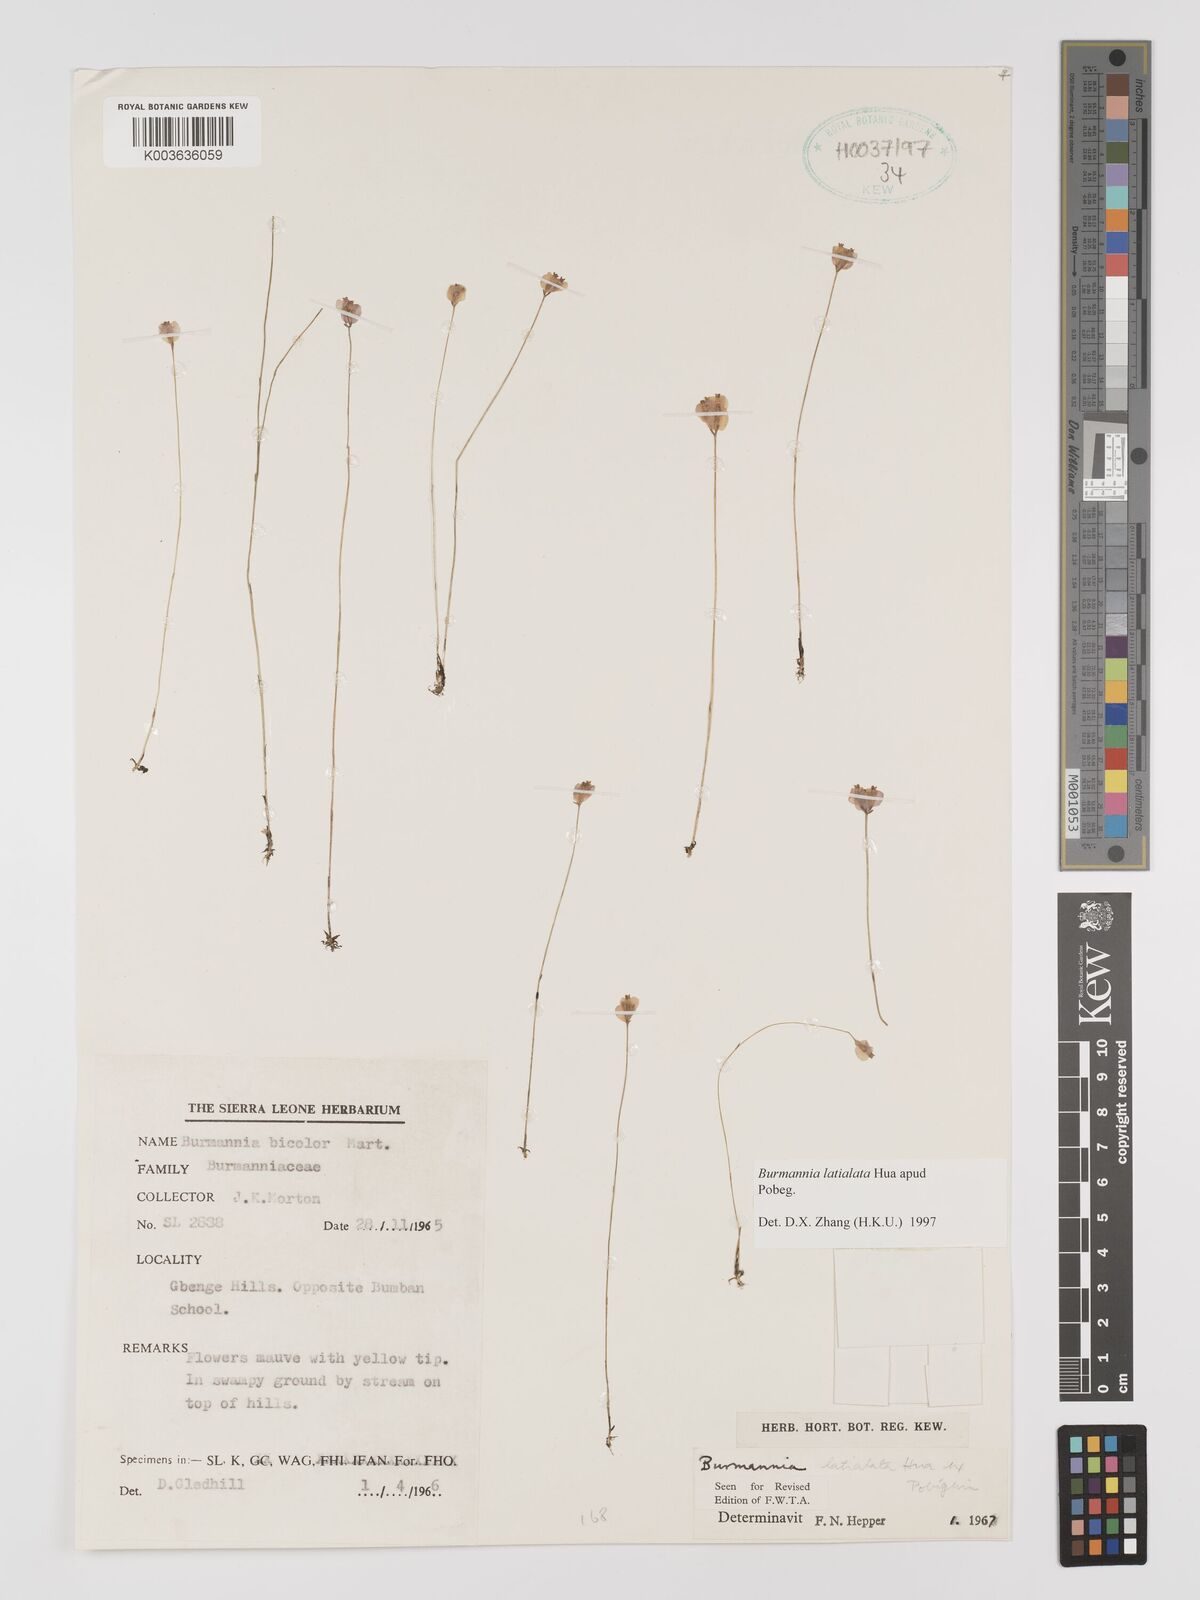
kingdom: Plantae
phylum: Tracheophyta
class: Liliopsida
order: Dioscoreales
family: Burmanniaceae
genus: Burmannia
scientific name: Burmannia madagascariensis
